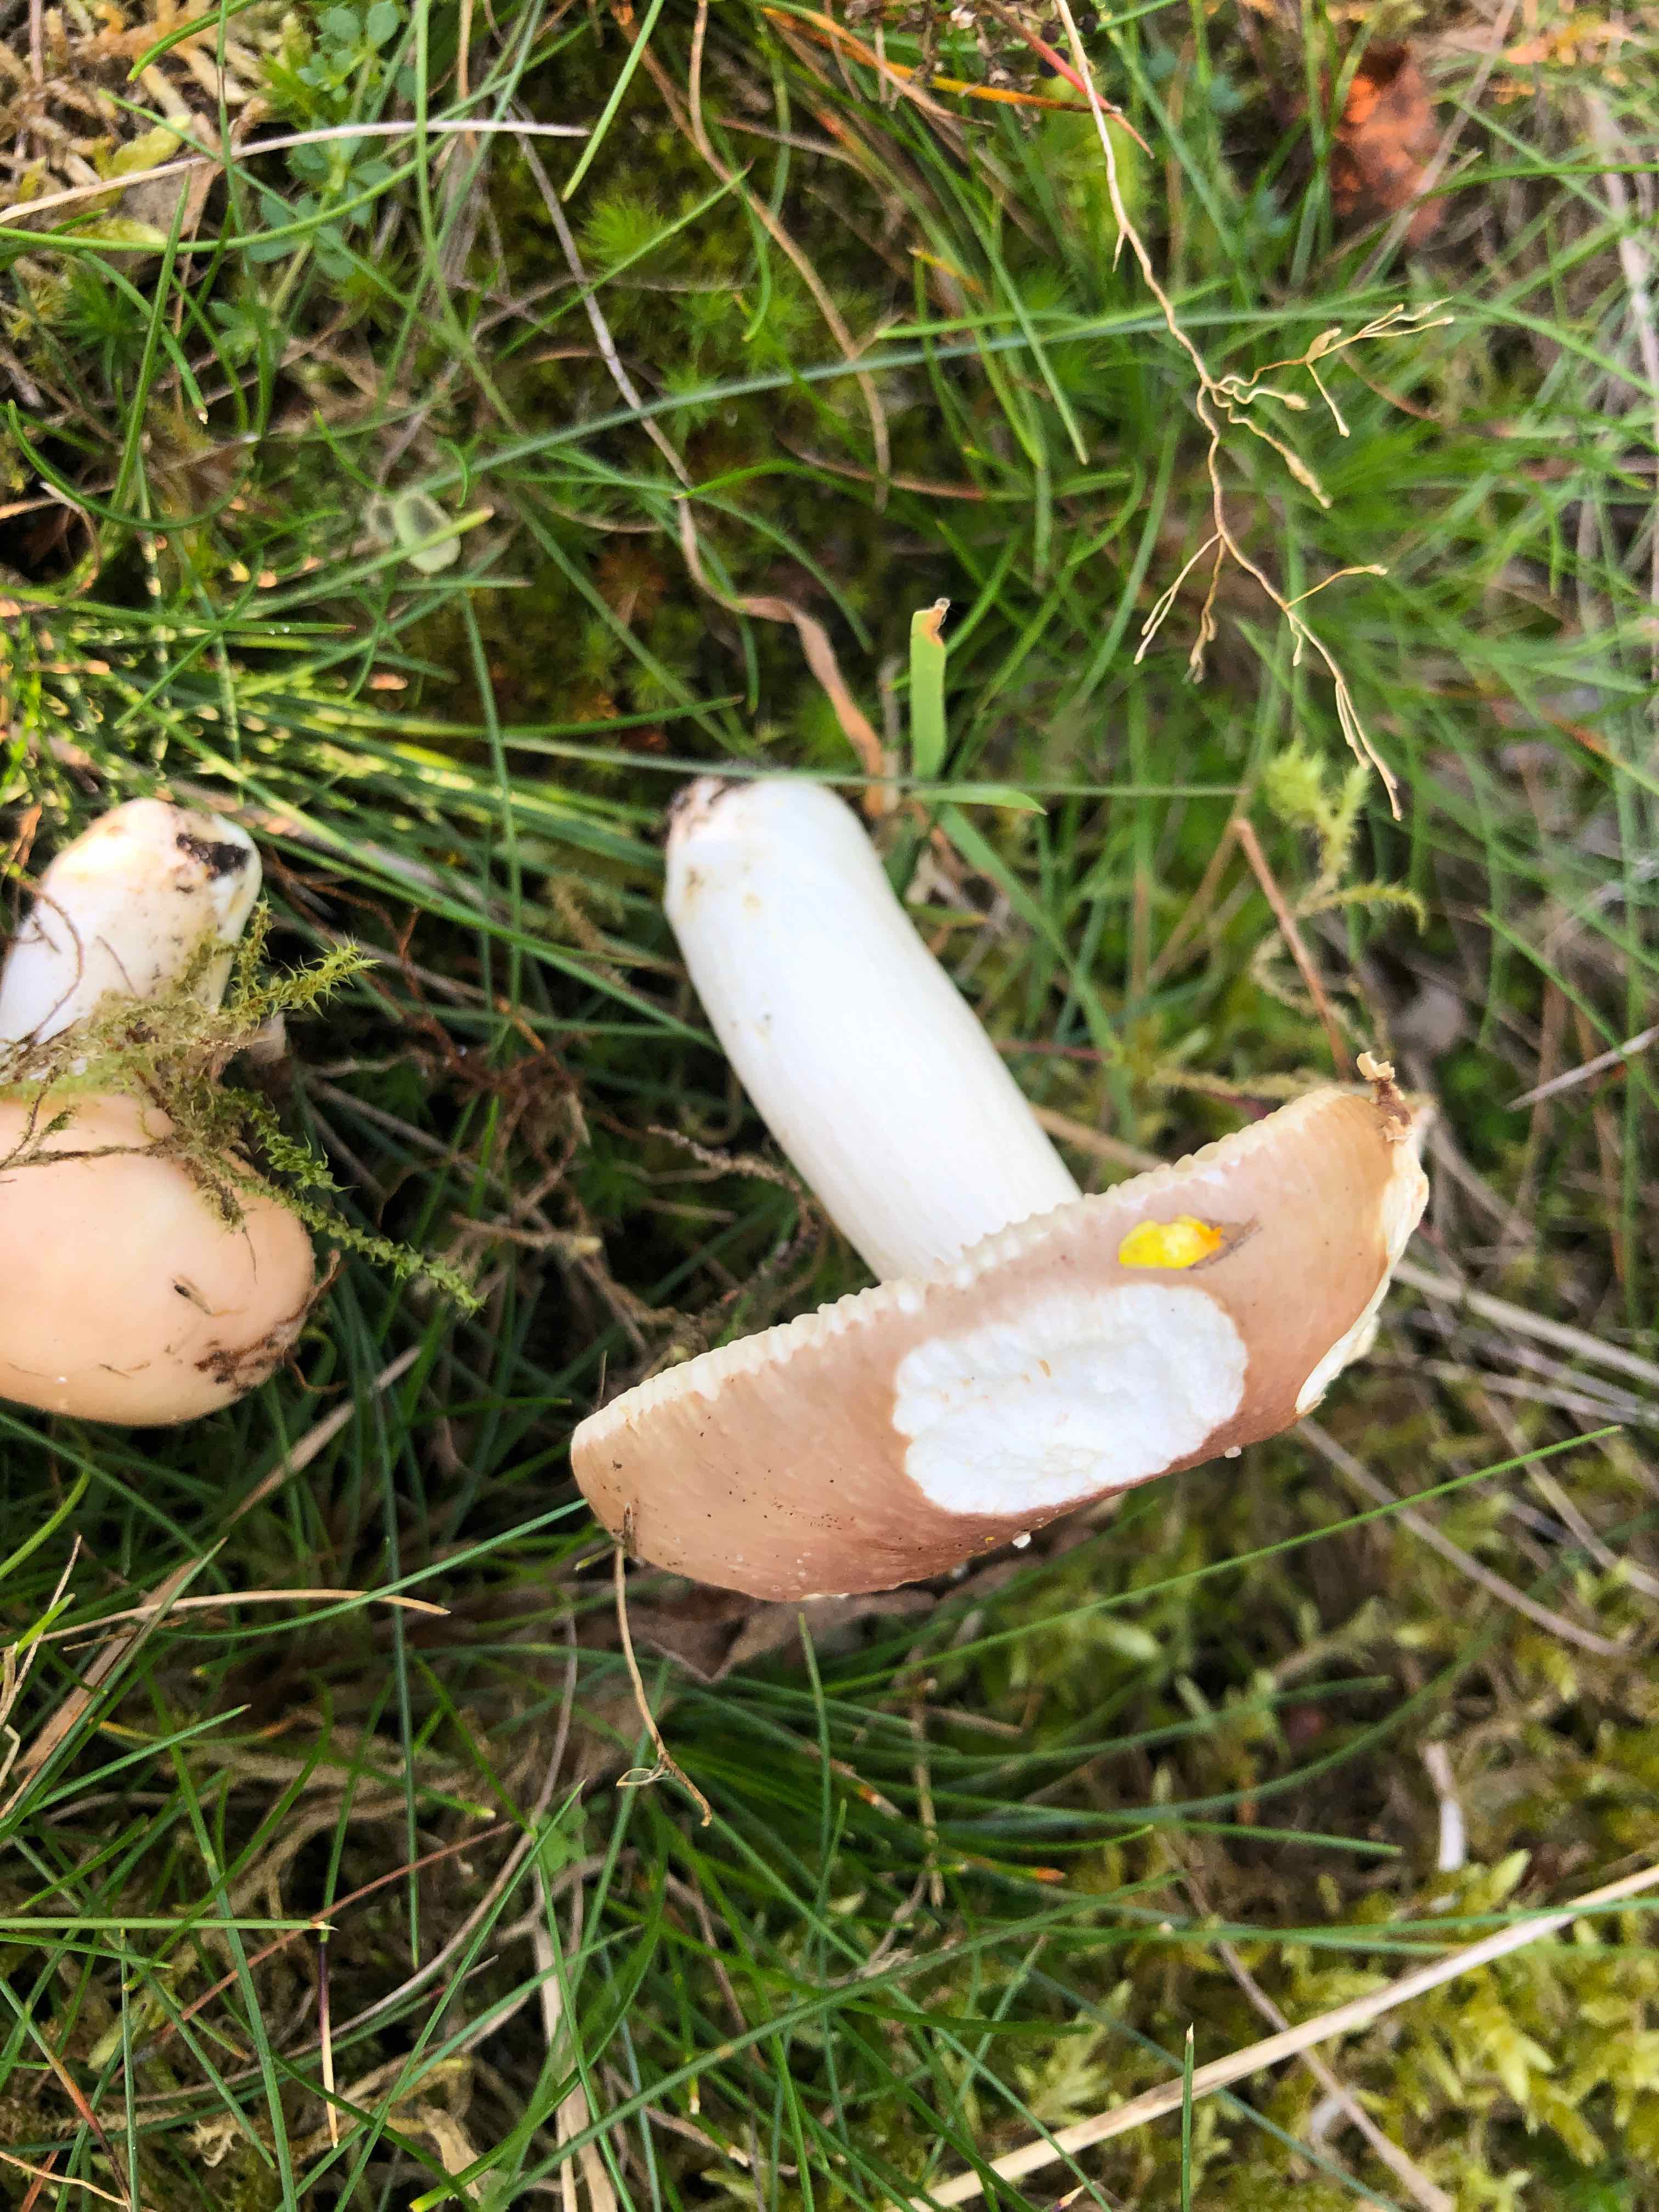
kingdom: Fungi
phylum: Basidiomycota
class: Agaricomycetes
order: Russulales
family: Russulaceae
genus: Russula
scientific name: Russula vesca
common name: spiselig skørhat
